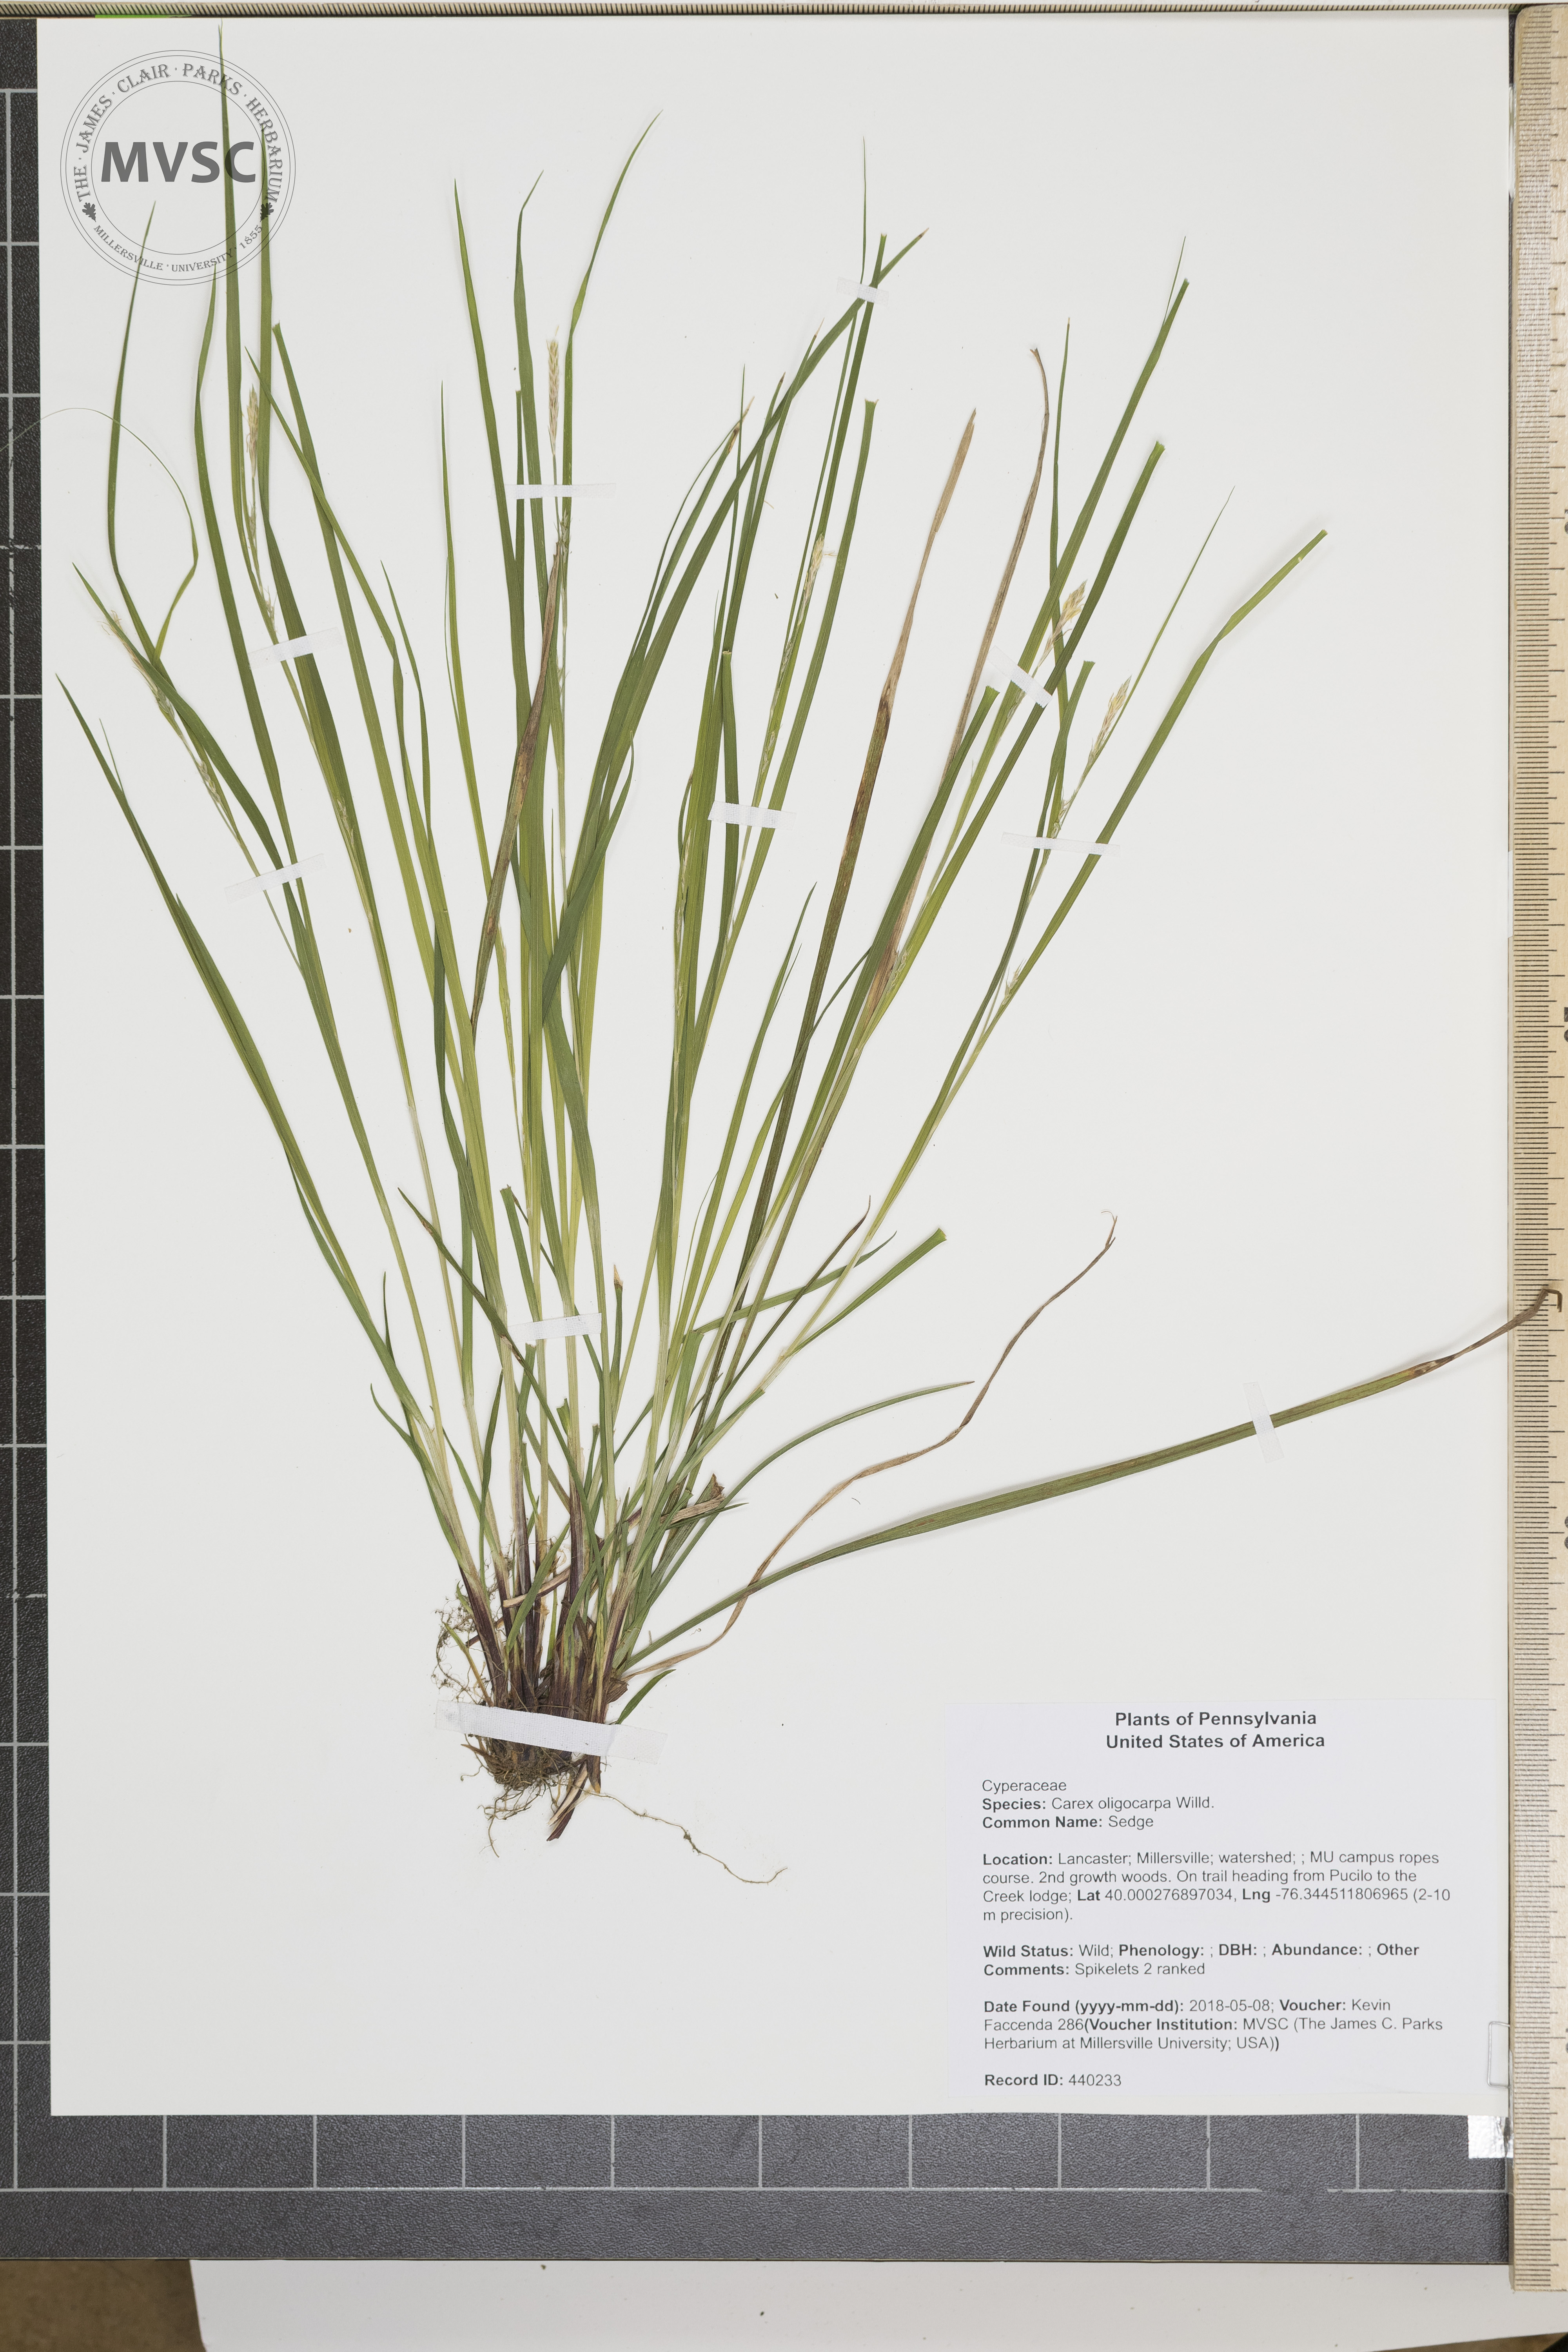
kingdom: Plantae
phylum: Tracheophyta
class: Liliopsida
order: Poales
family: Cyperaceae
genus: Carex
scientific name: Carex oligocarpa
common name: Sedge
